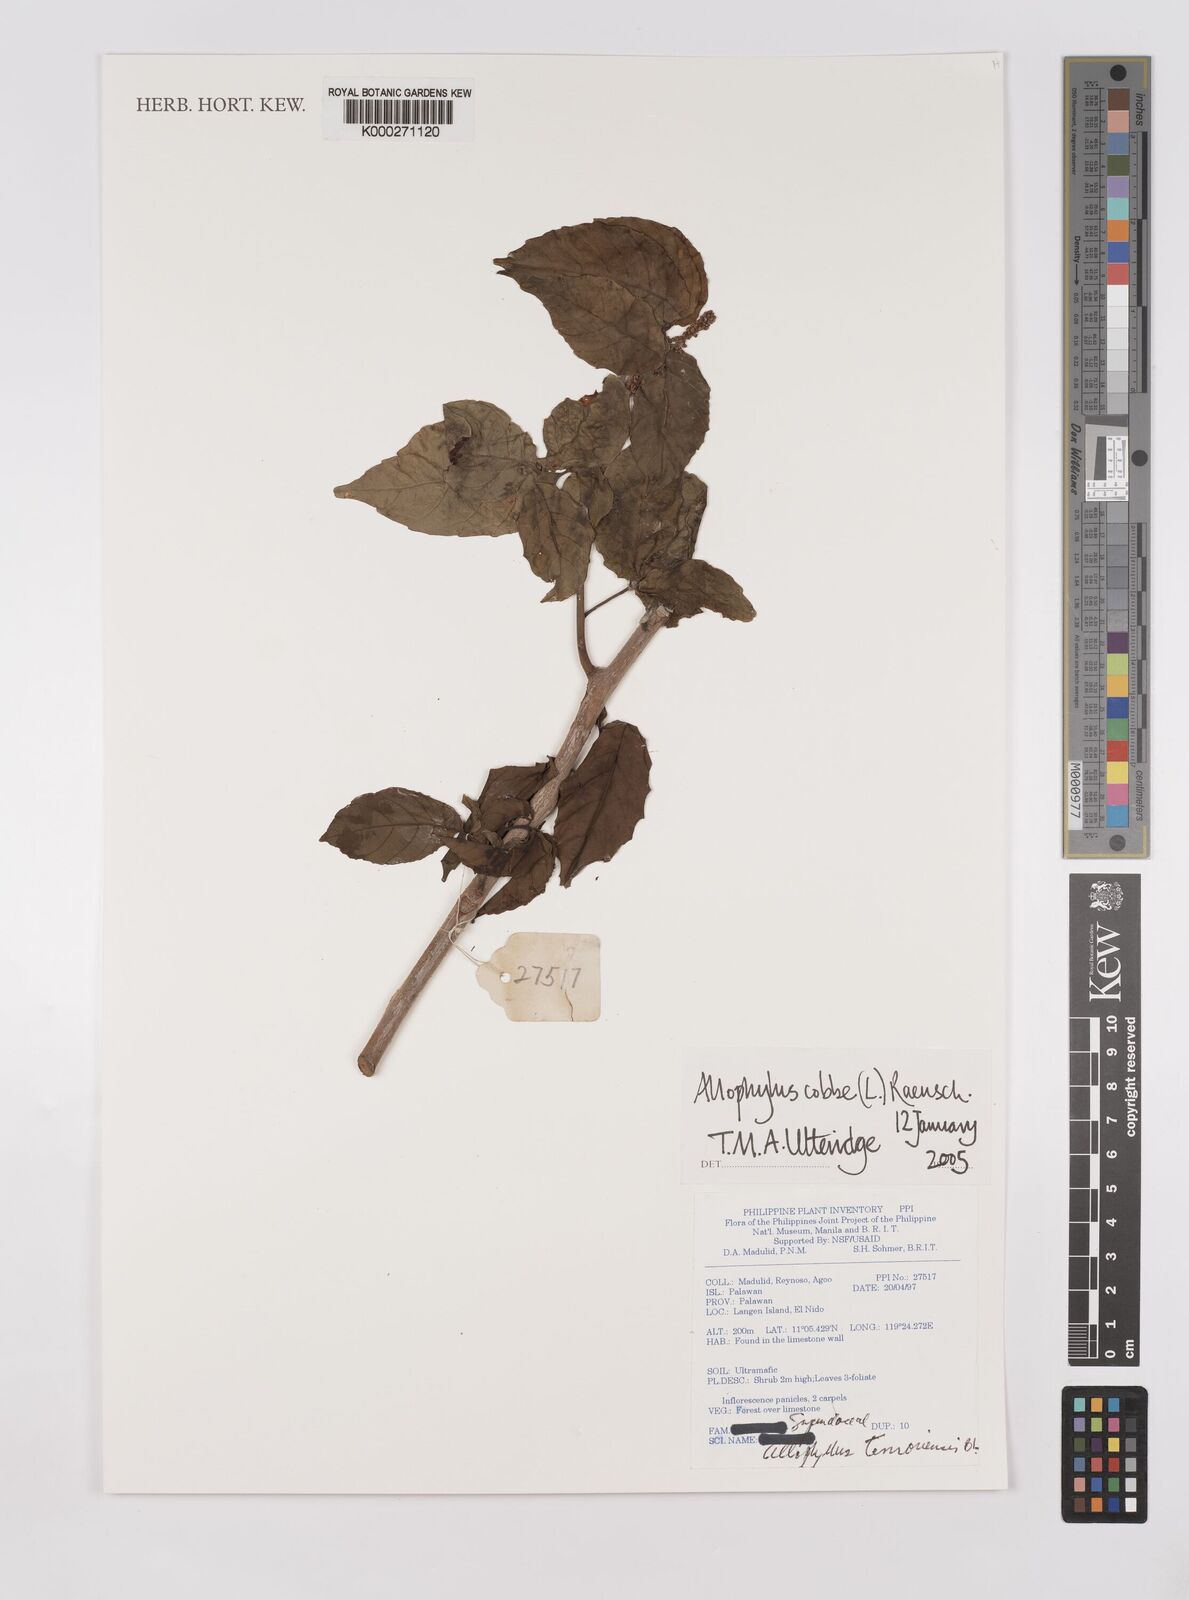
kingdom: Plantae
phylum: Tracheophyta
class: Magnoliopsida
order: Sapindales
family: Sapindaceae
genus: Allophylus
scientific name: Allophylus
